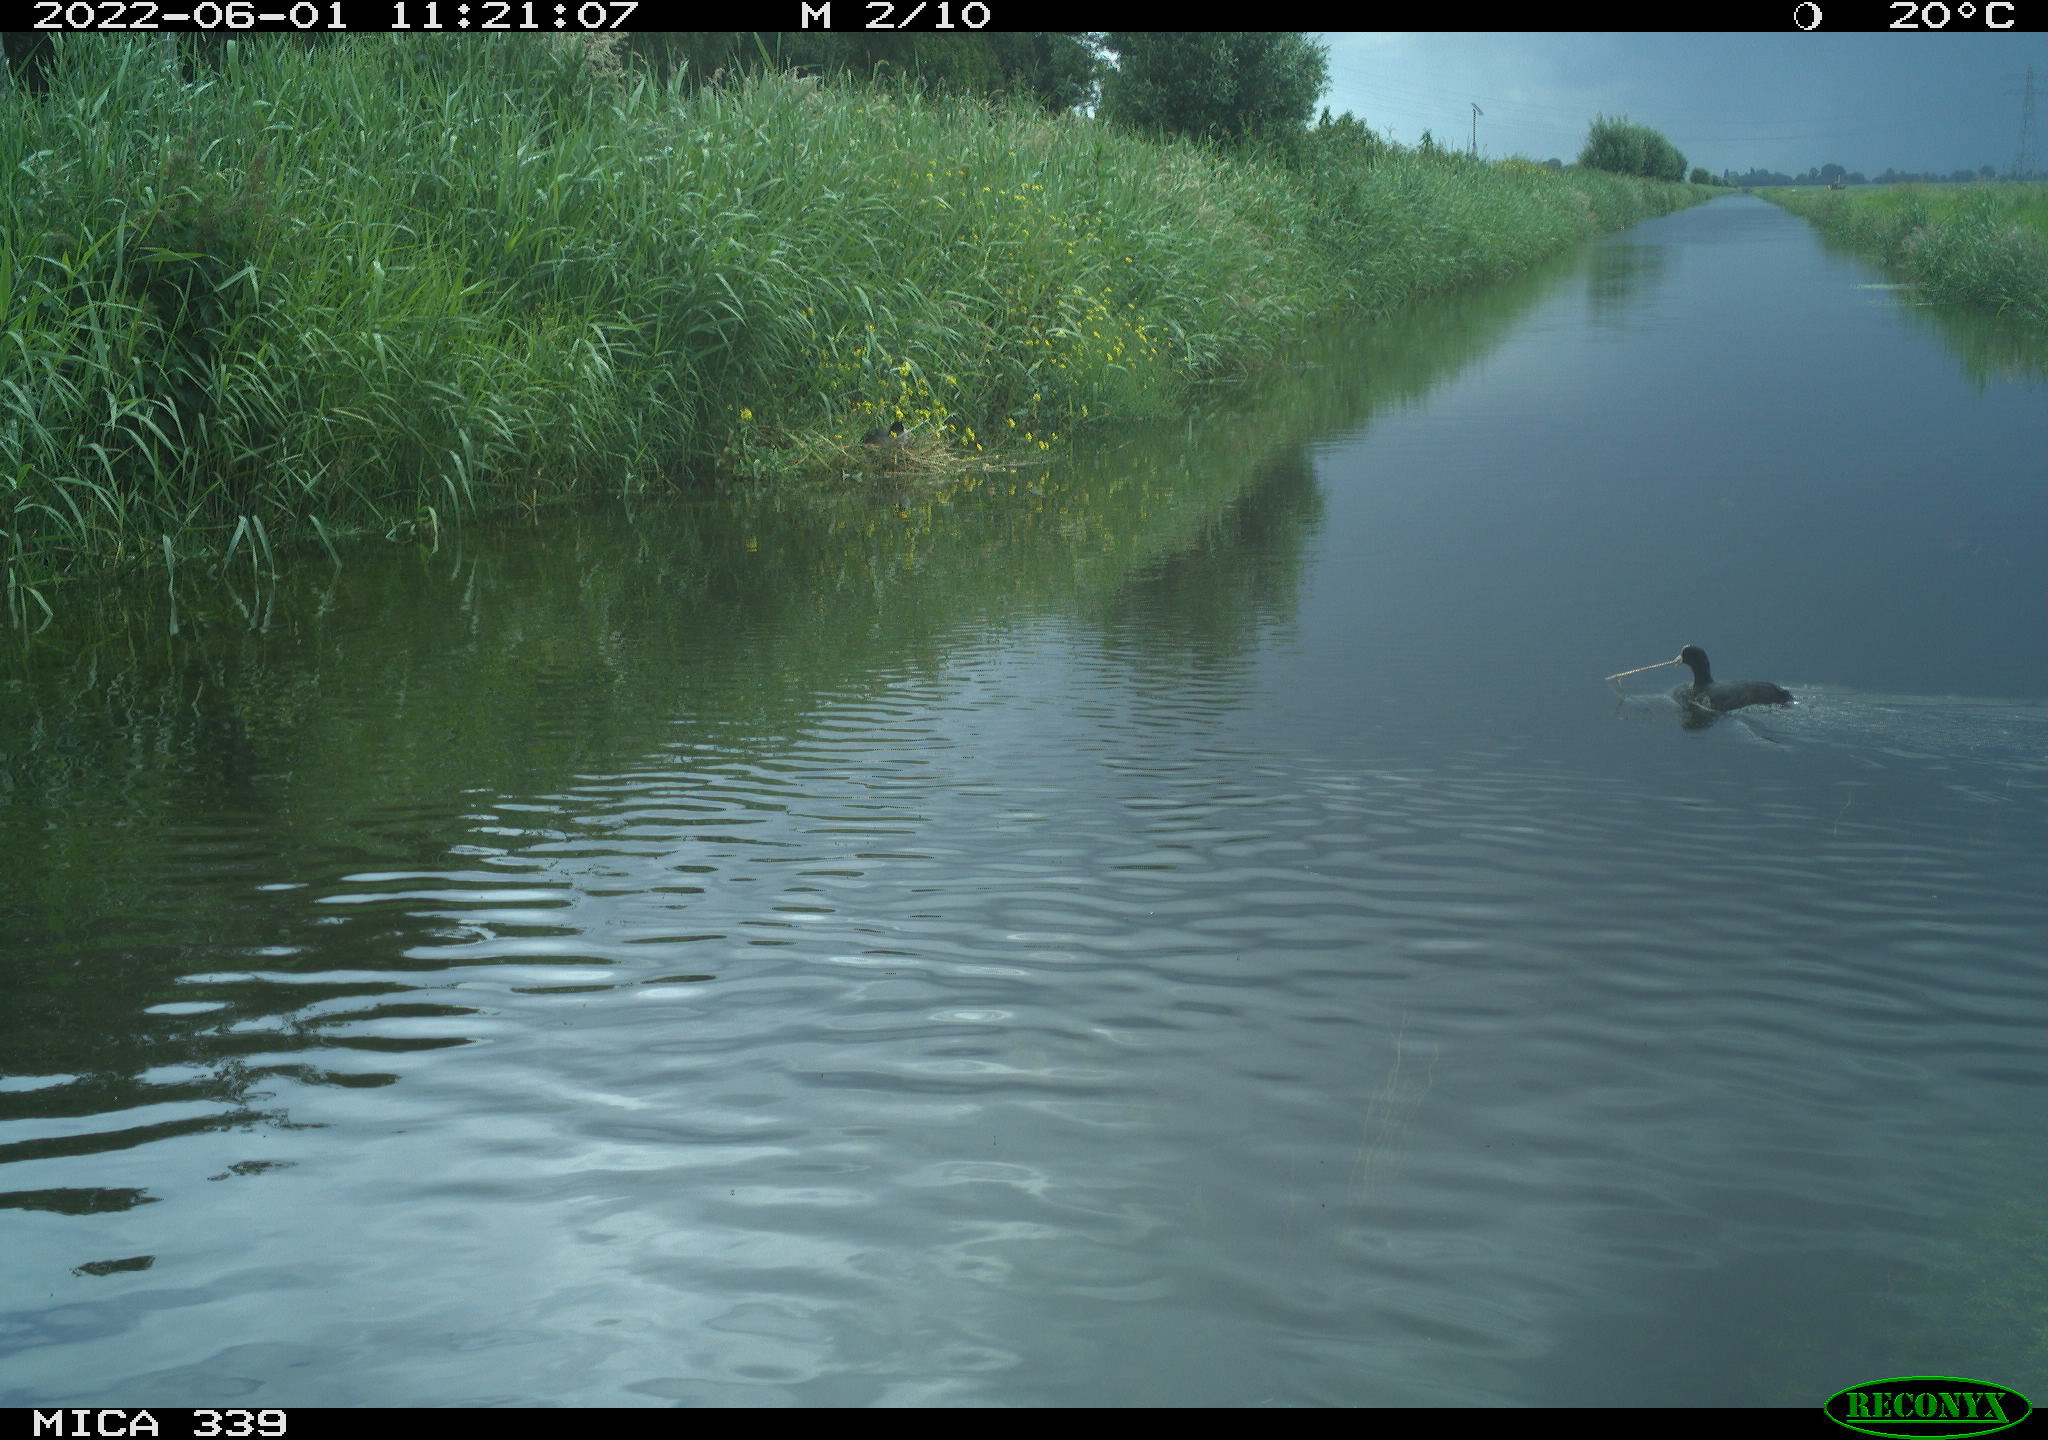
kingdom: Animalia
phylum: Chordata
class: Aves
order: Gruiformes
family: Rallidae
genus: Fulica
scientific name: Fulica atra
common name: Eurasian coot
